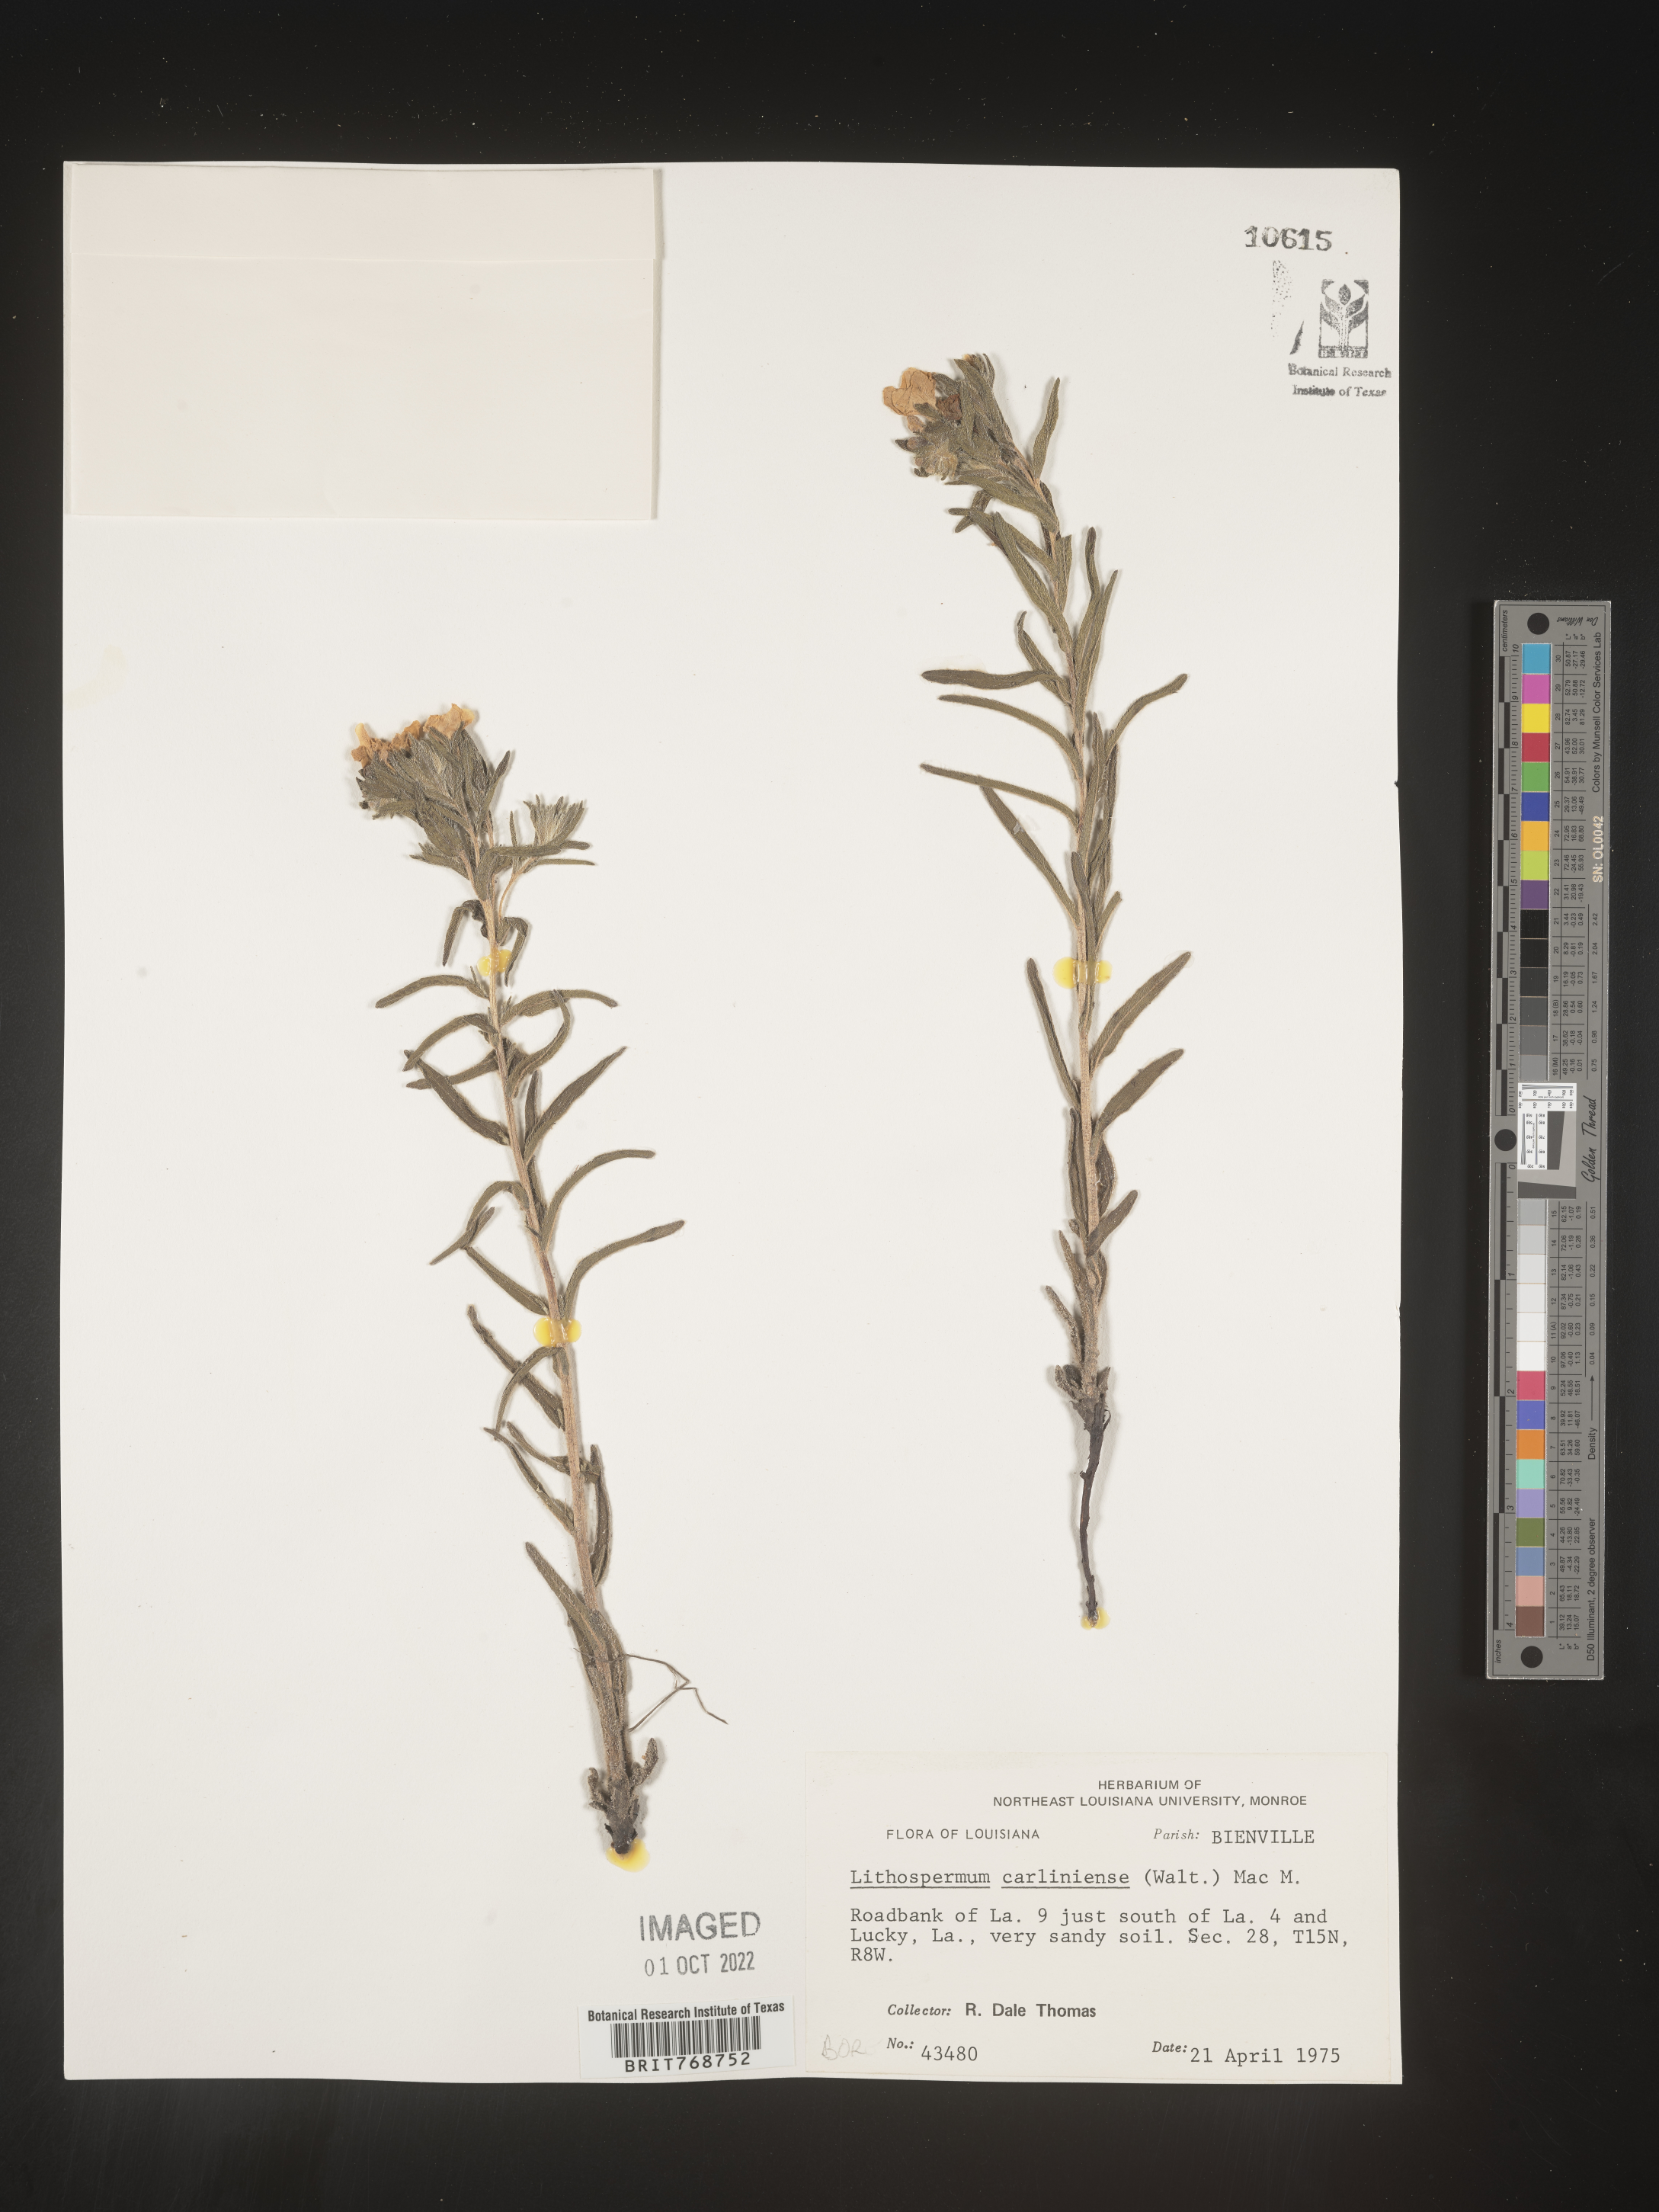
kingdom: Plantae
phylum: Tracheophyta
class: Magnoliopsida
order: Boraginales
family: Boraginaceae
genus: Lithospermum
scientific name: Lithospermum caroliniense
